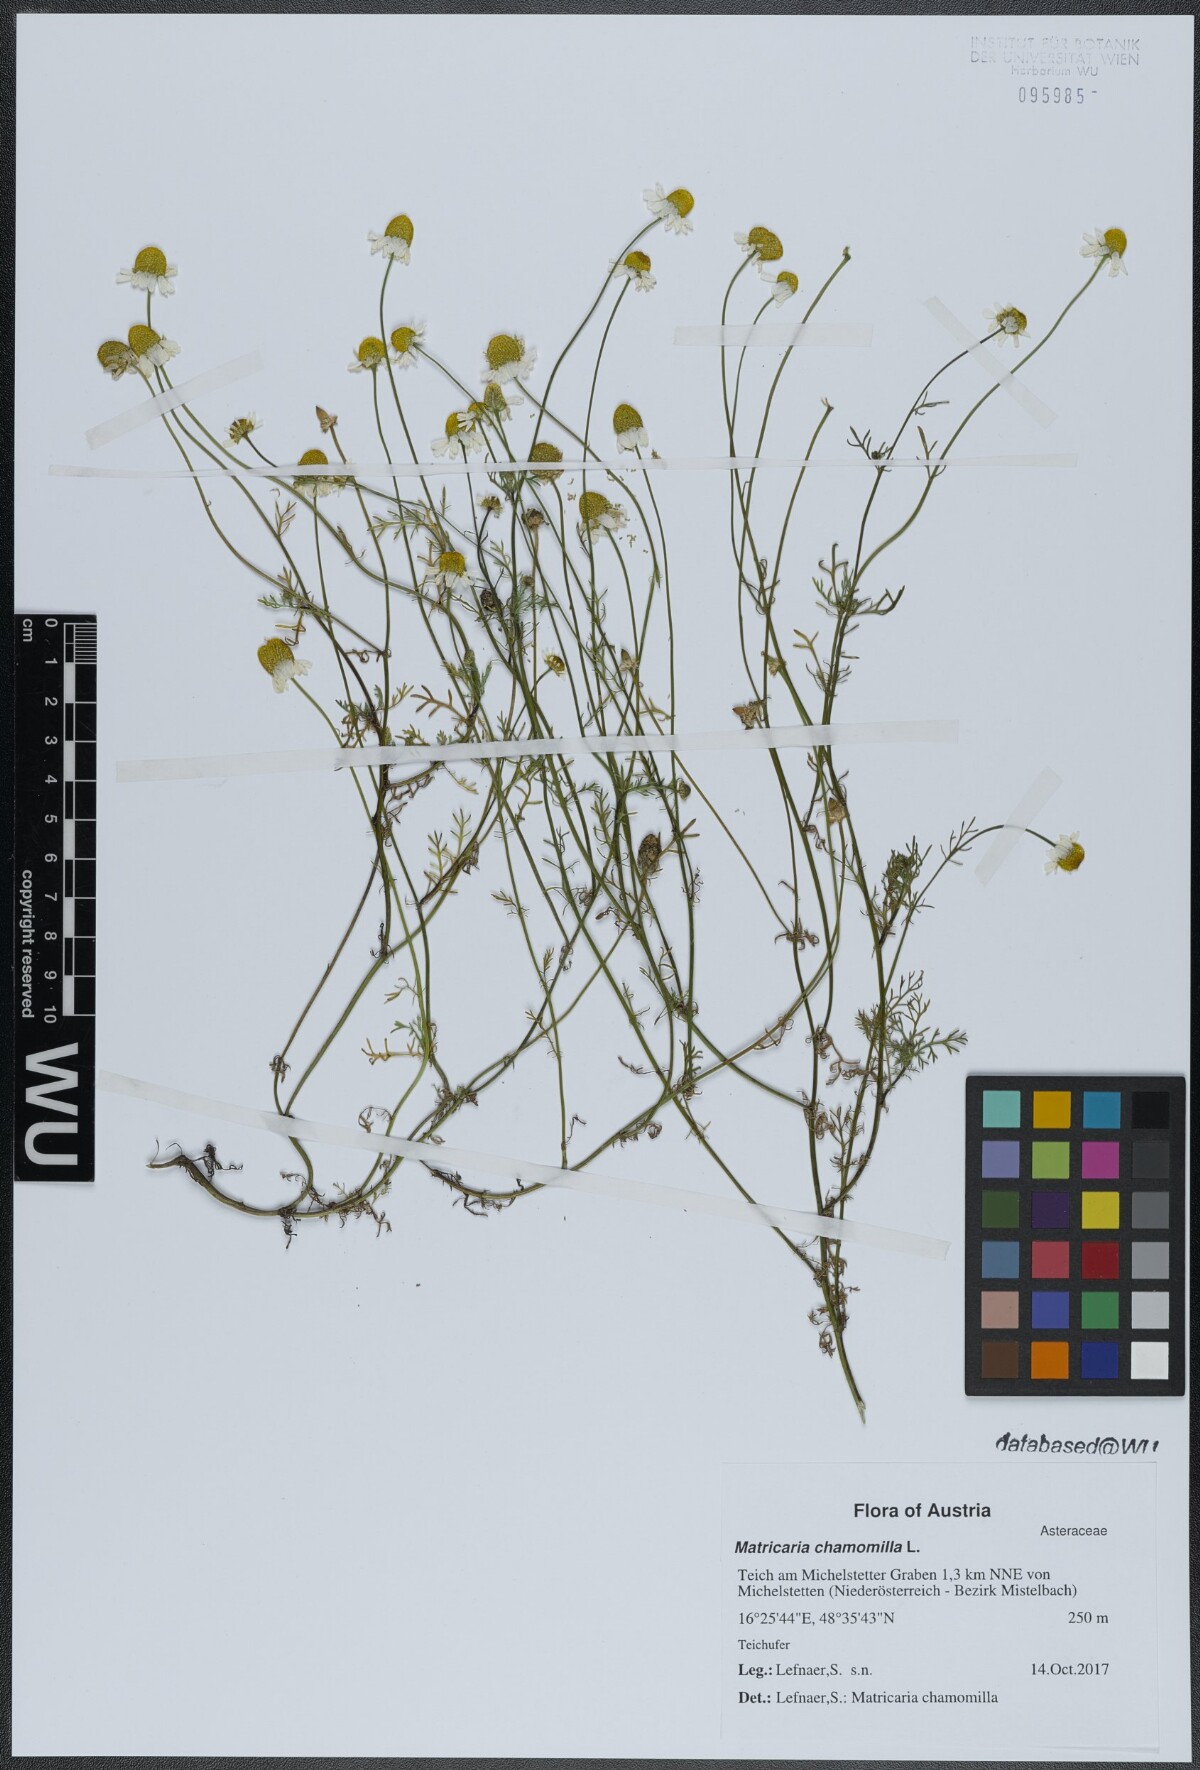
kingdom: Plantae
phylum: Tracheophyta
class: Magnoliopsida
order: Asterales
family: Asteraceae
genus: Matricaria
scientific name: Matricaria chamomilla
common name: Scented mayweed
